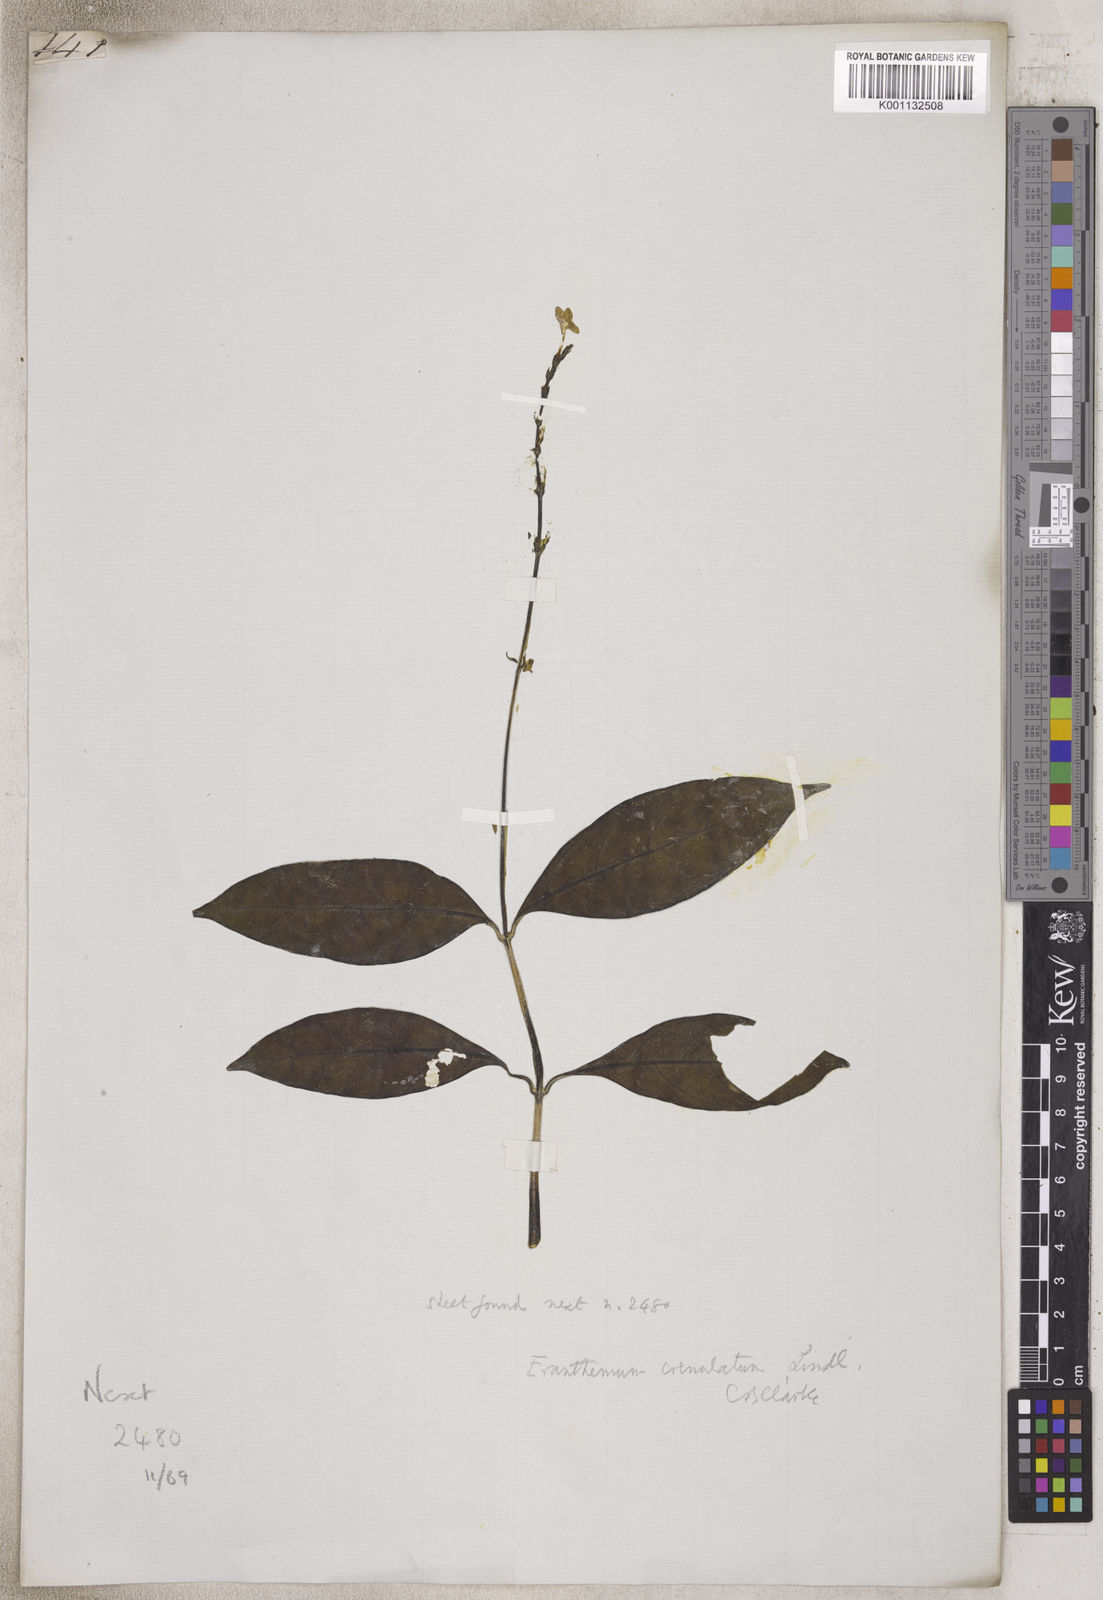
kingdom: Plantae
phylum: Tracheophyta
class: Magnoliopsida
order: Lamiales
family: Acanthaceae
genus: Eranthemum
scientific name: Eranthemum
